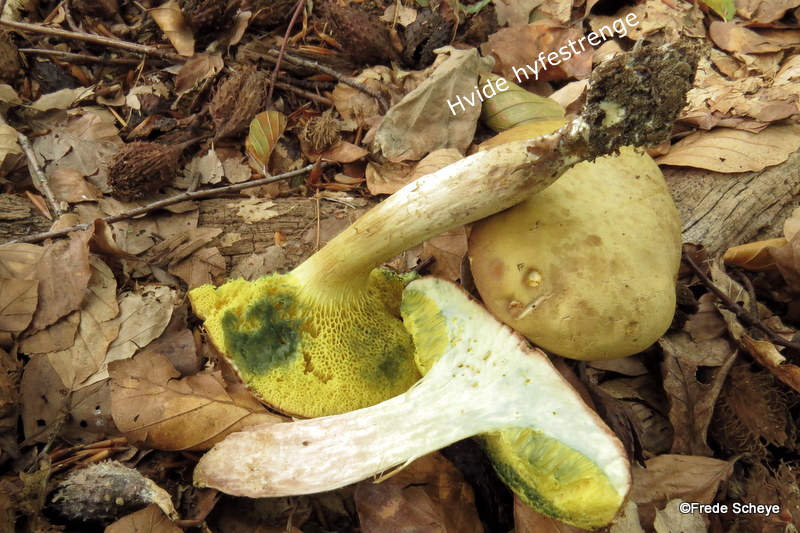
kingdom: Fungi
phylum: Basidiomycota
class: Agaricomycetes
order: Boletales
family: Boletaceae
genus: Xerocomus
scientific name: Xerocomus subtomentosus
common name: filtet rørhat
